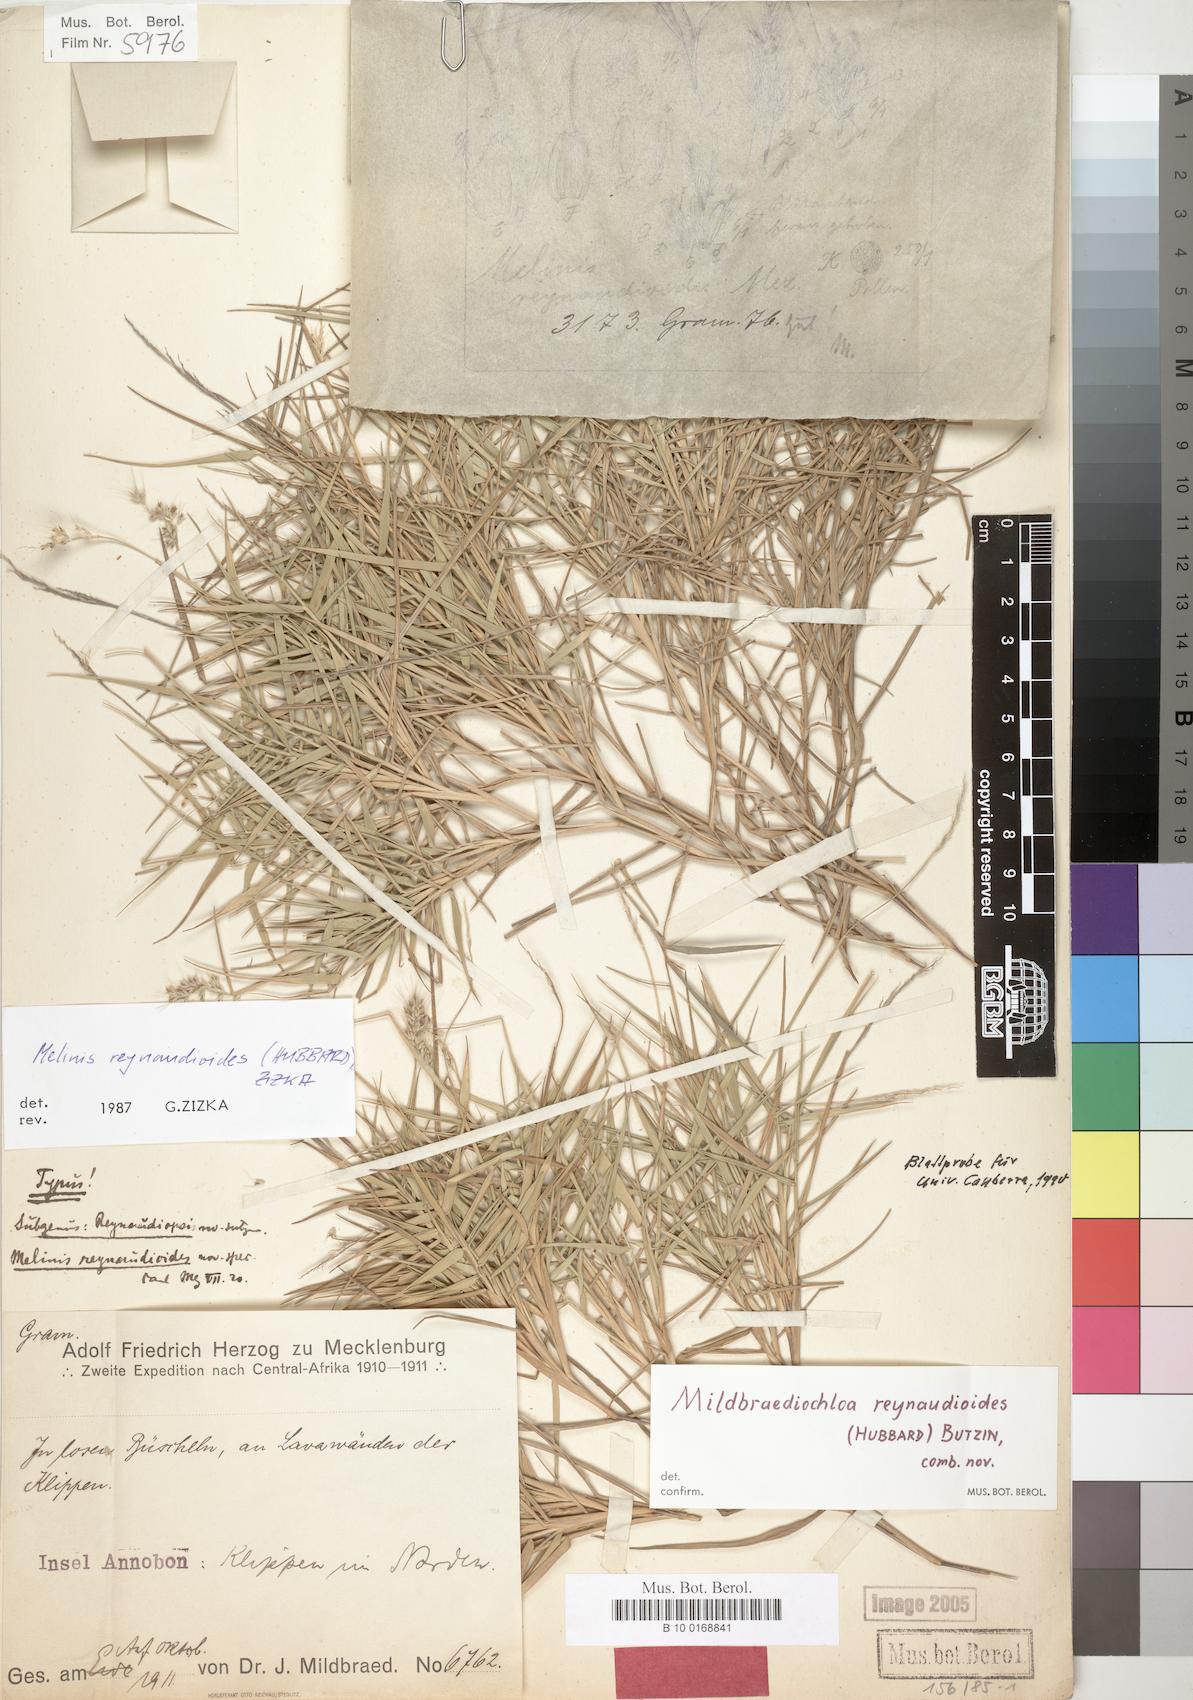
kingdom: Plantae
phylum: Tracheophyta
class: Liliopsida
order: Poales
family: Poaceae
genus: Melinis
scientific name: Melinis reynaudioides
